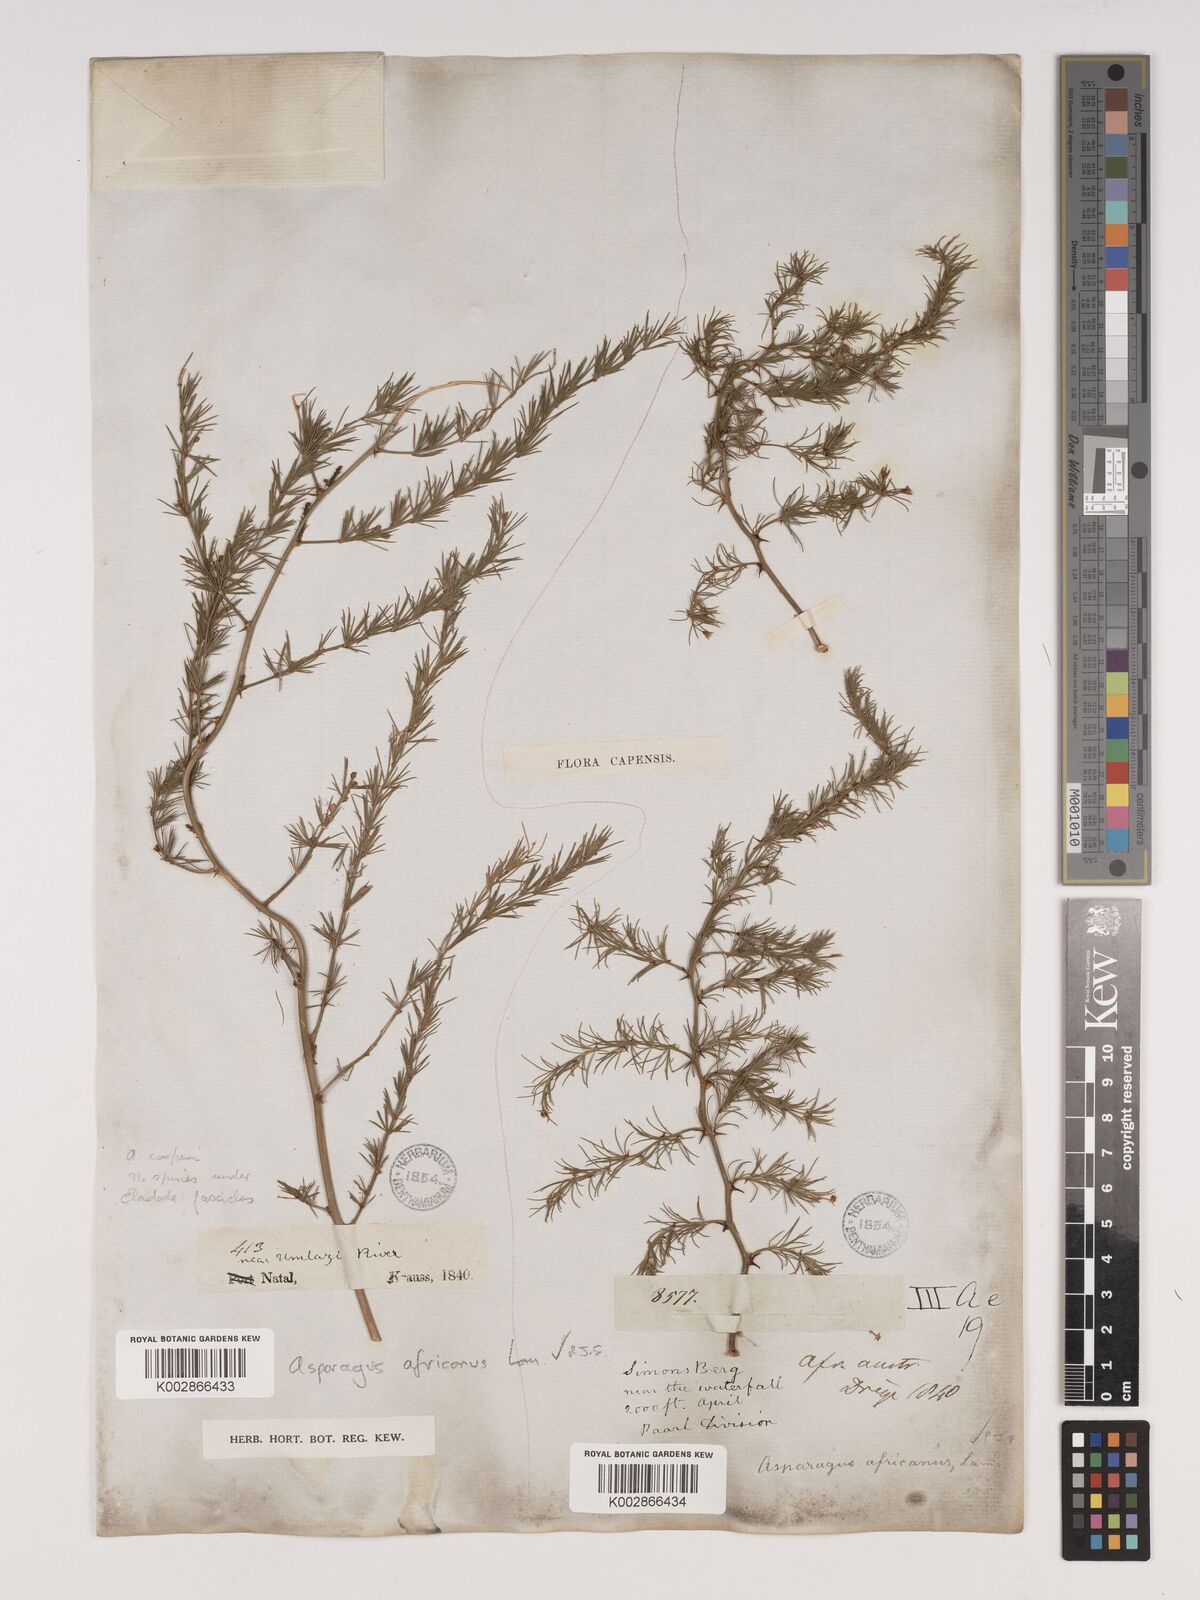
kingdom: Plantae
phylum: Tracheophyta
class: Liliopsida
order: Asparagales
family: Asparagaceae
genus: Asparagus
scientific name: Asparagus africanus
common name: Asparagus-fern
